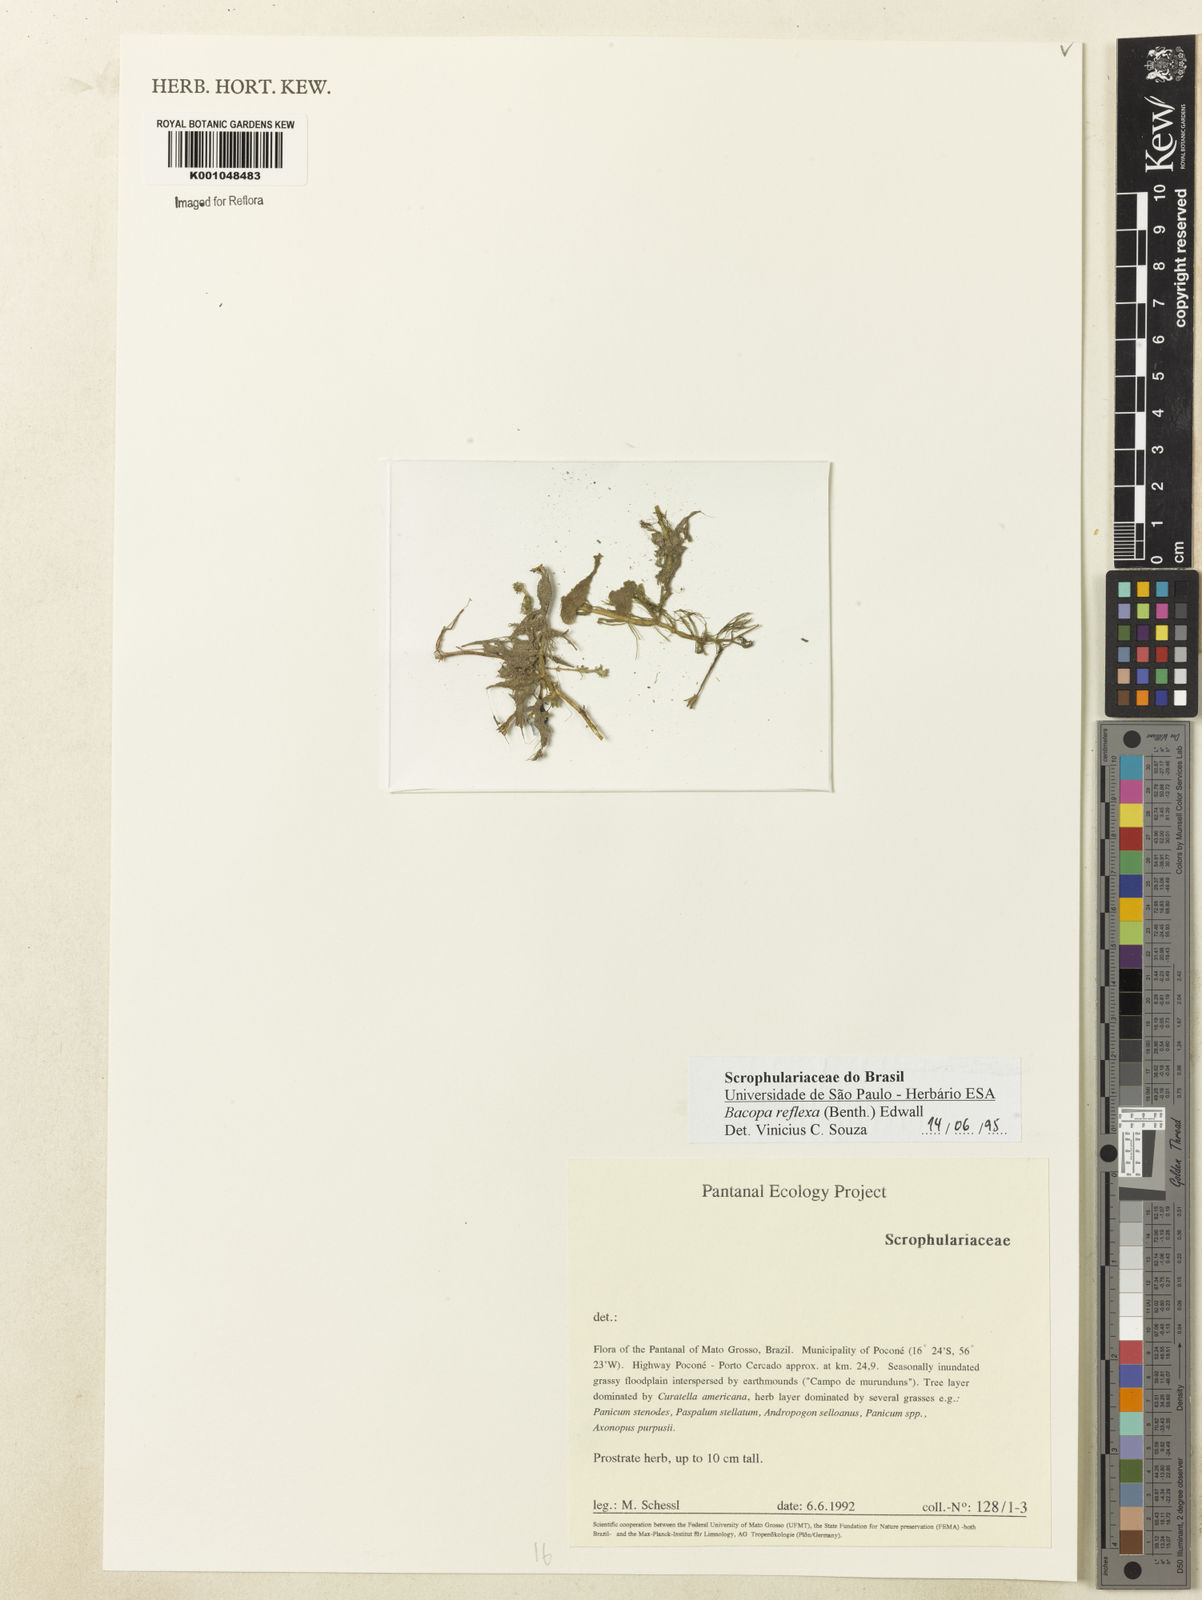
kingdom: Plantae
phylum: Tracheophyta
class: Magnoliopsida
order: Lamiales
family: Plantaginaceae
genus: Bacopa
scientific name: Bacopa reflexa
